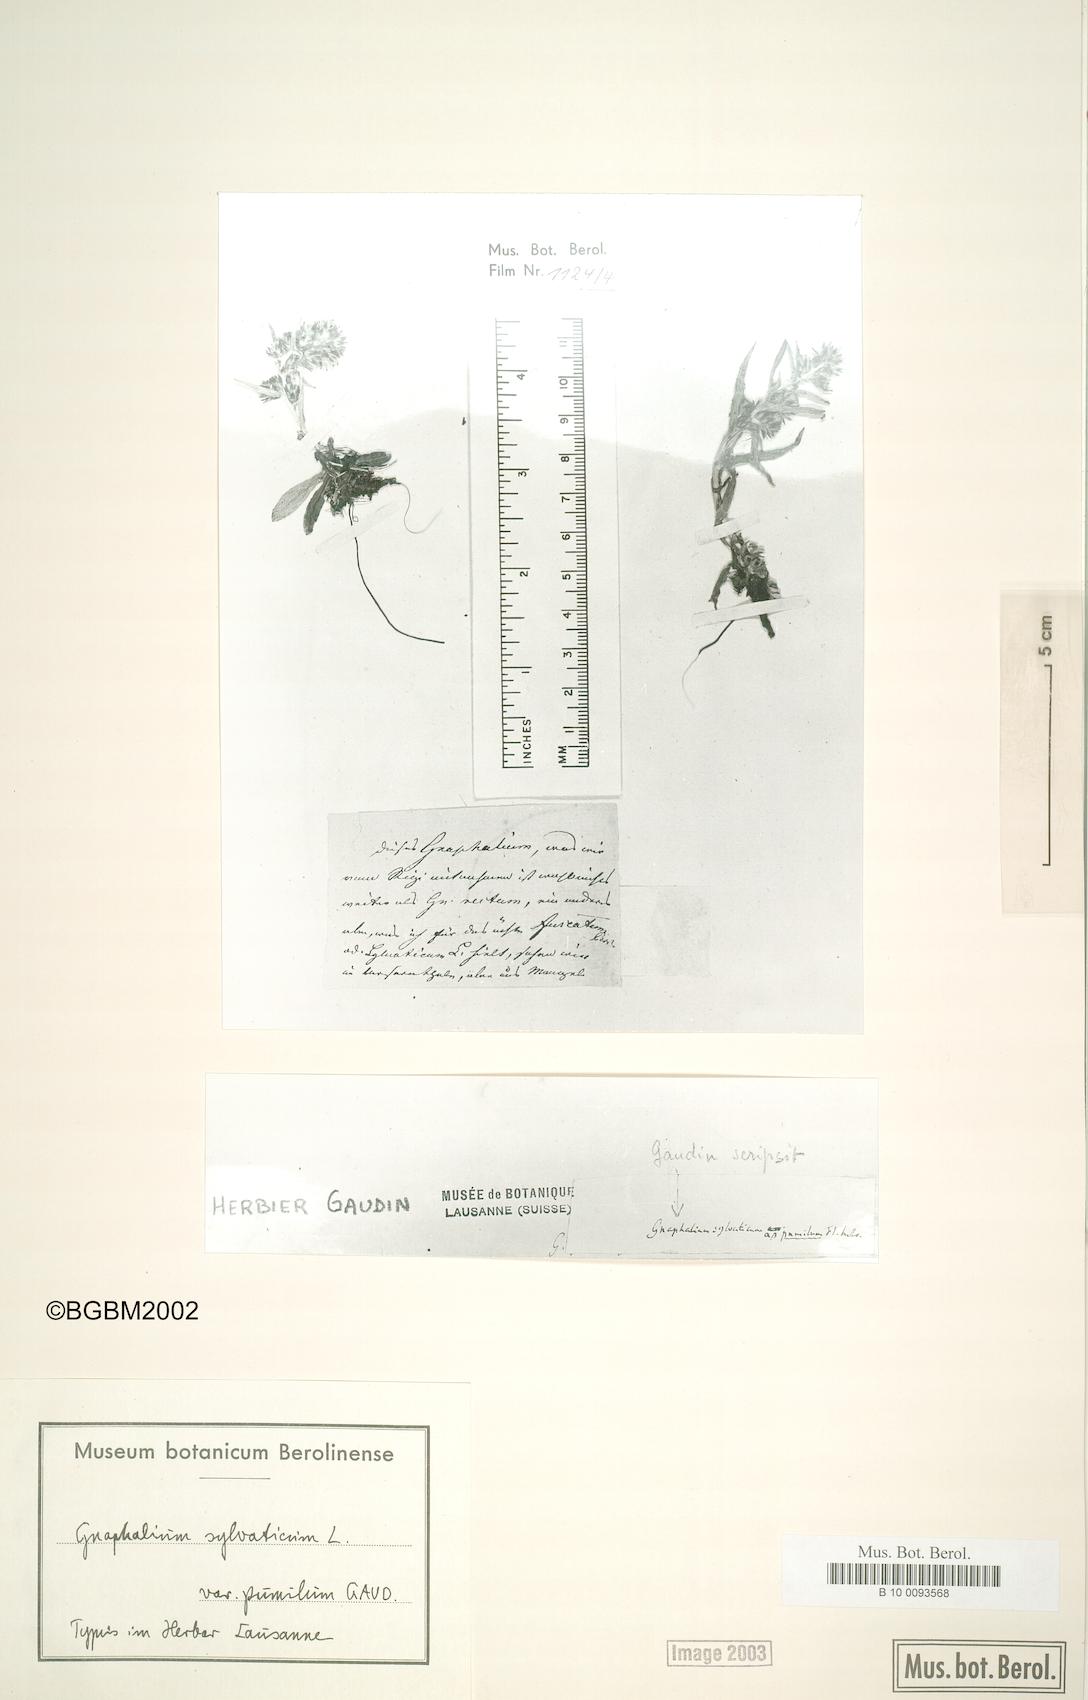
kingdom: Plantae
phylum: Tracheophyta
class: Magnoliopsida
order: Asterales
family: Asteraceae
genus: Omalotheca
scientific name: Omalotheca sylvatica
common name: Heath cudweed
